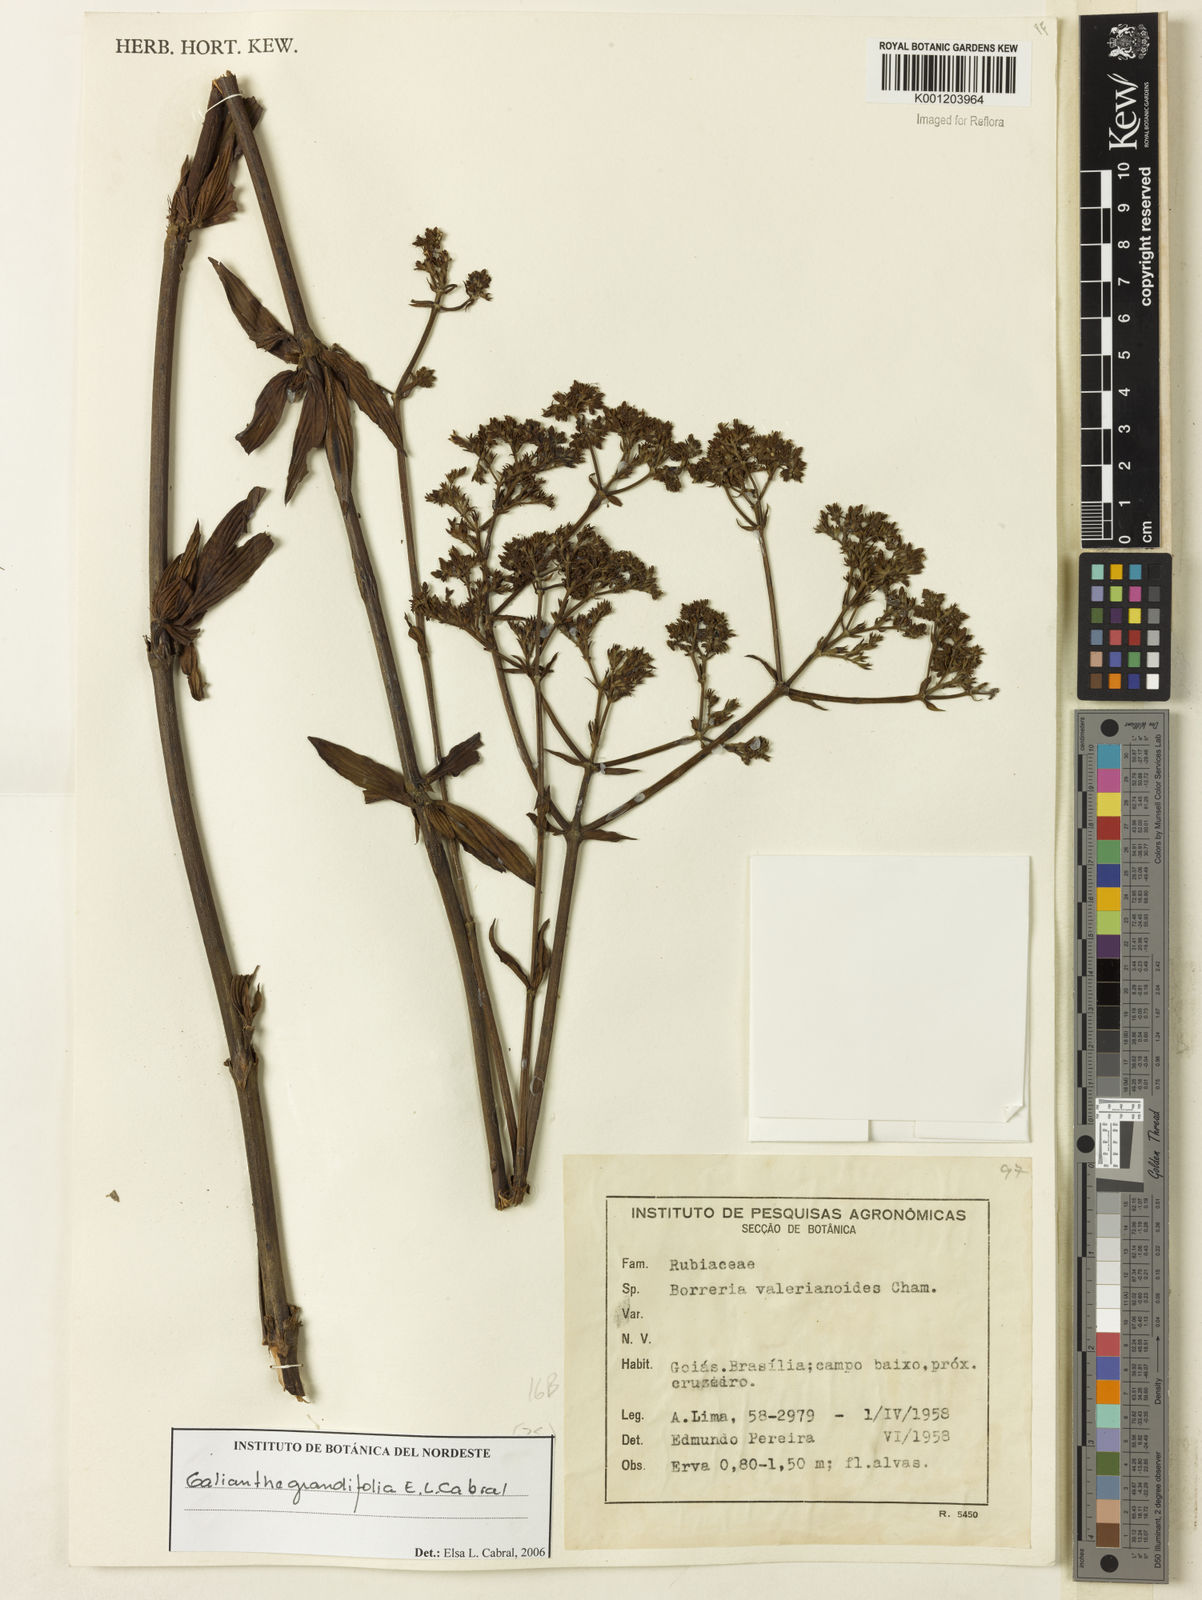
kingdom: Plantae
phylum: Tracheophyta
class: Magnoliopsida
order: Gentianales
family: Rubiaceae
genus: Galianthe
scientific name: Galianthe grandifolia
